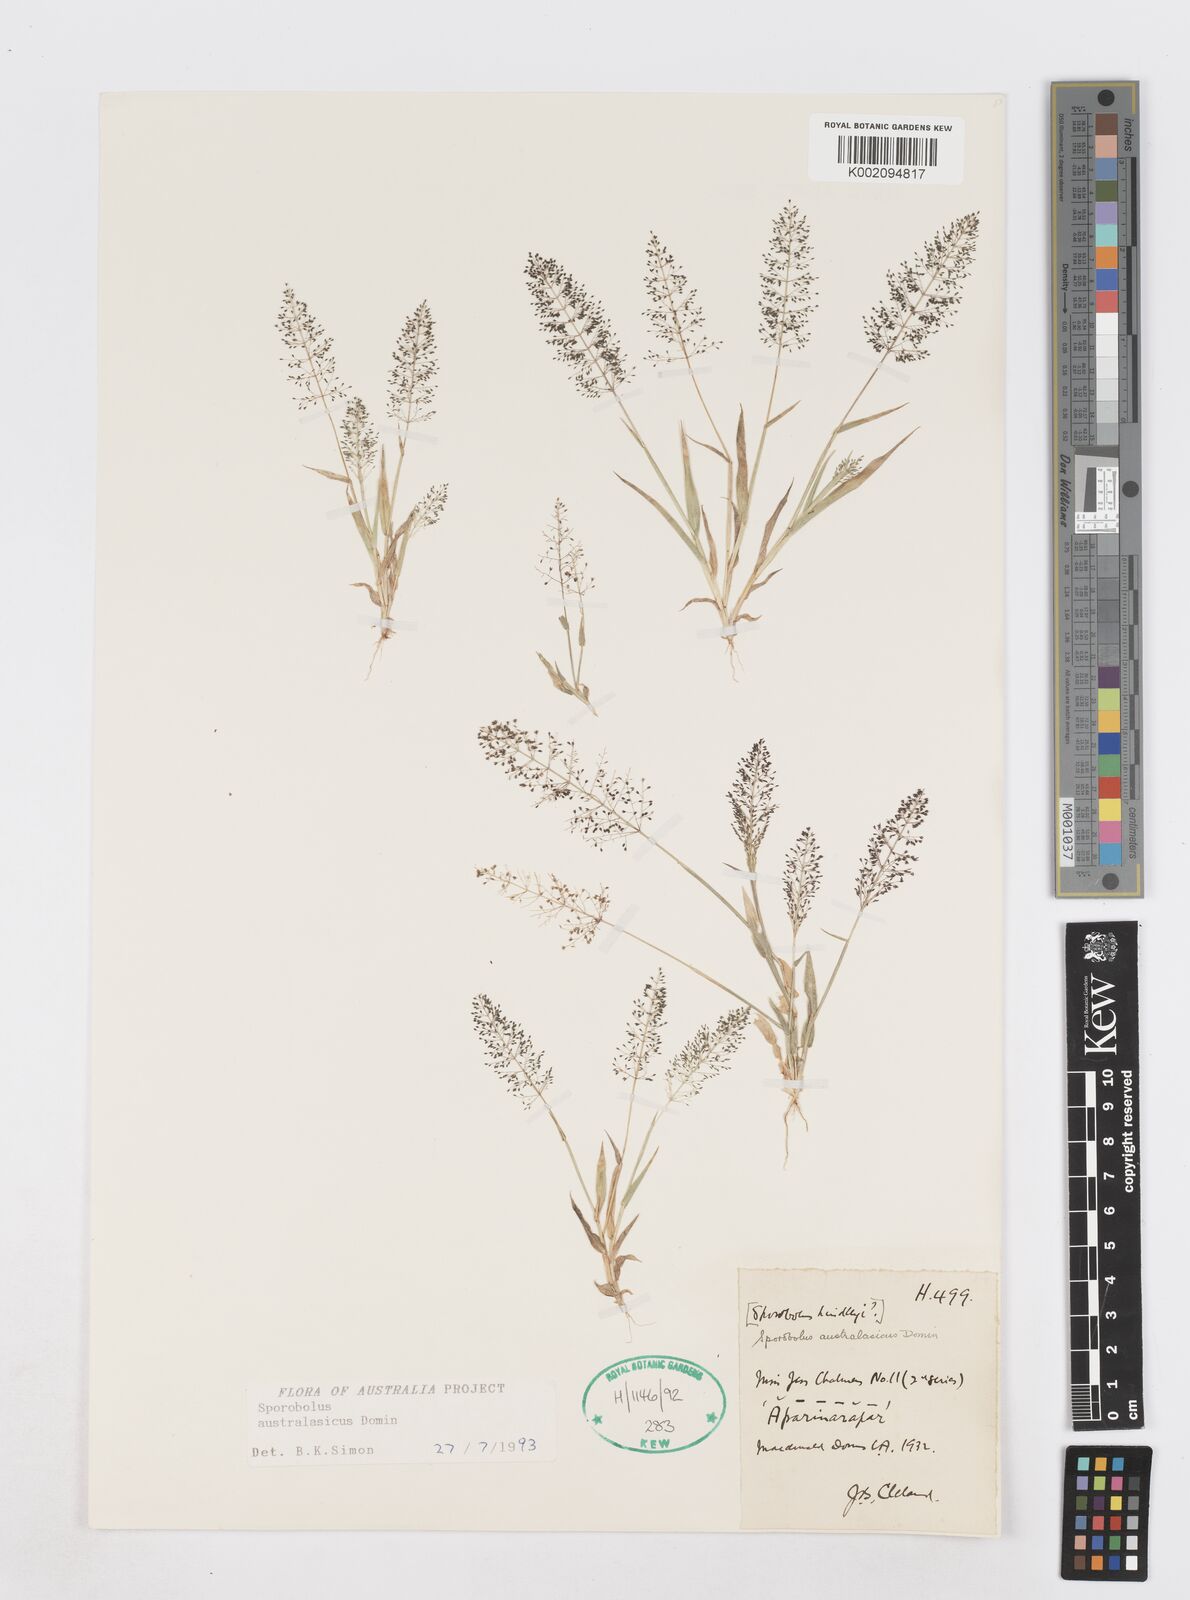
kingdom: Plantae
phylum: Tracheophyta
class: Liliopsida
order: Poales
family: Poaceae
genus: Sporobolus
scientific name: Sporobolus australasicus
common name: Australian dropseed
